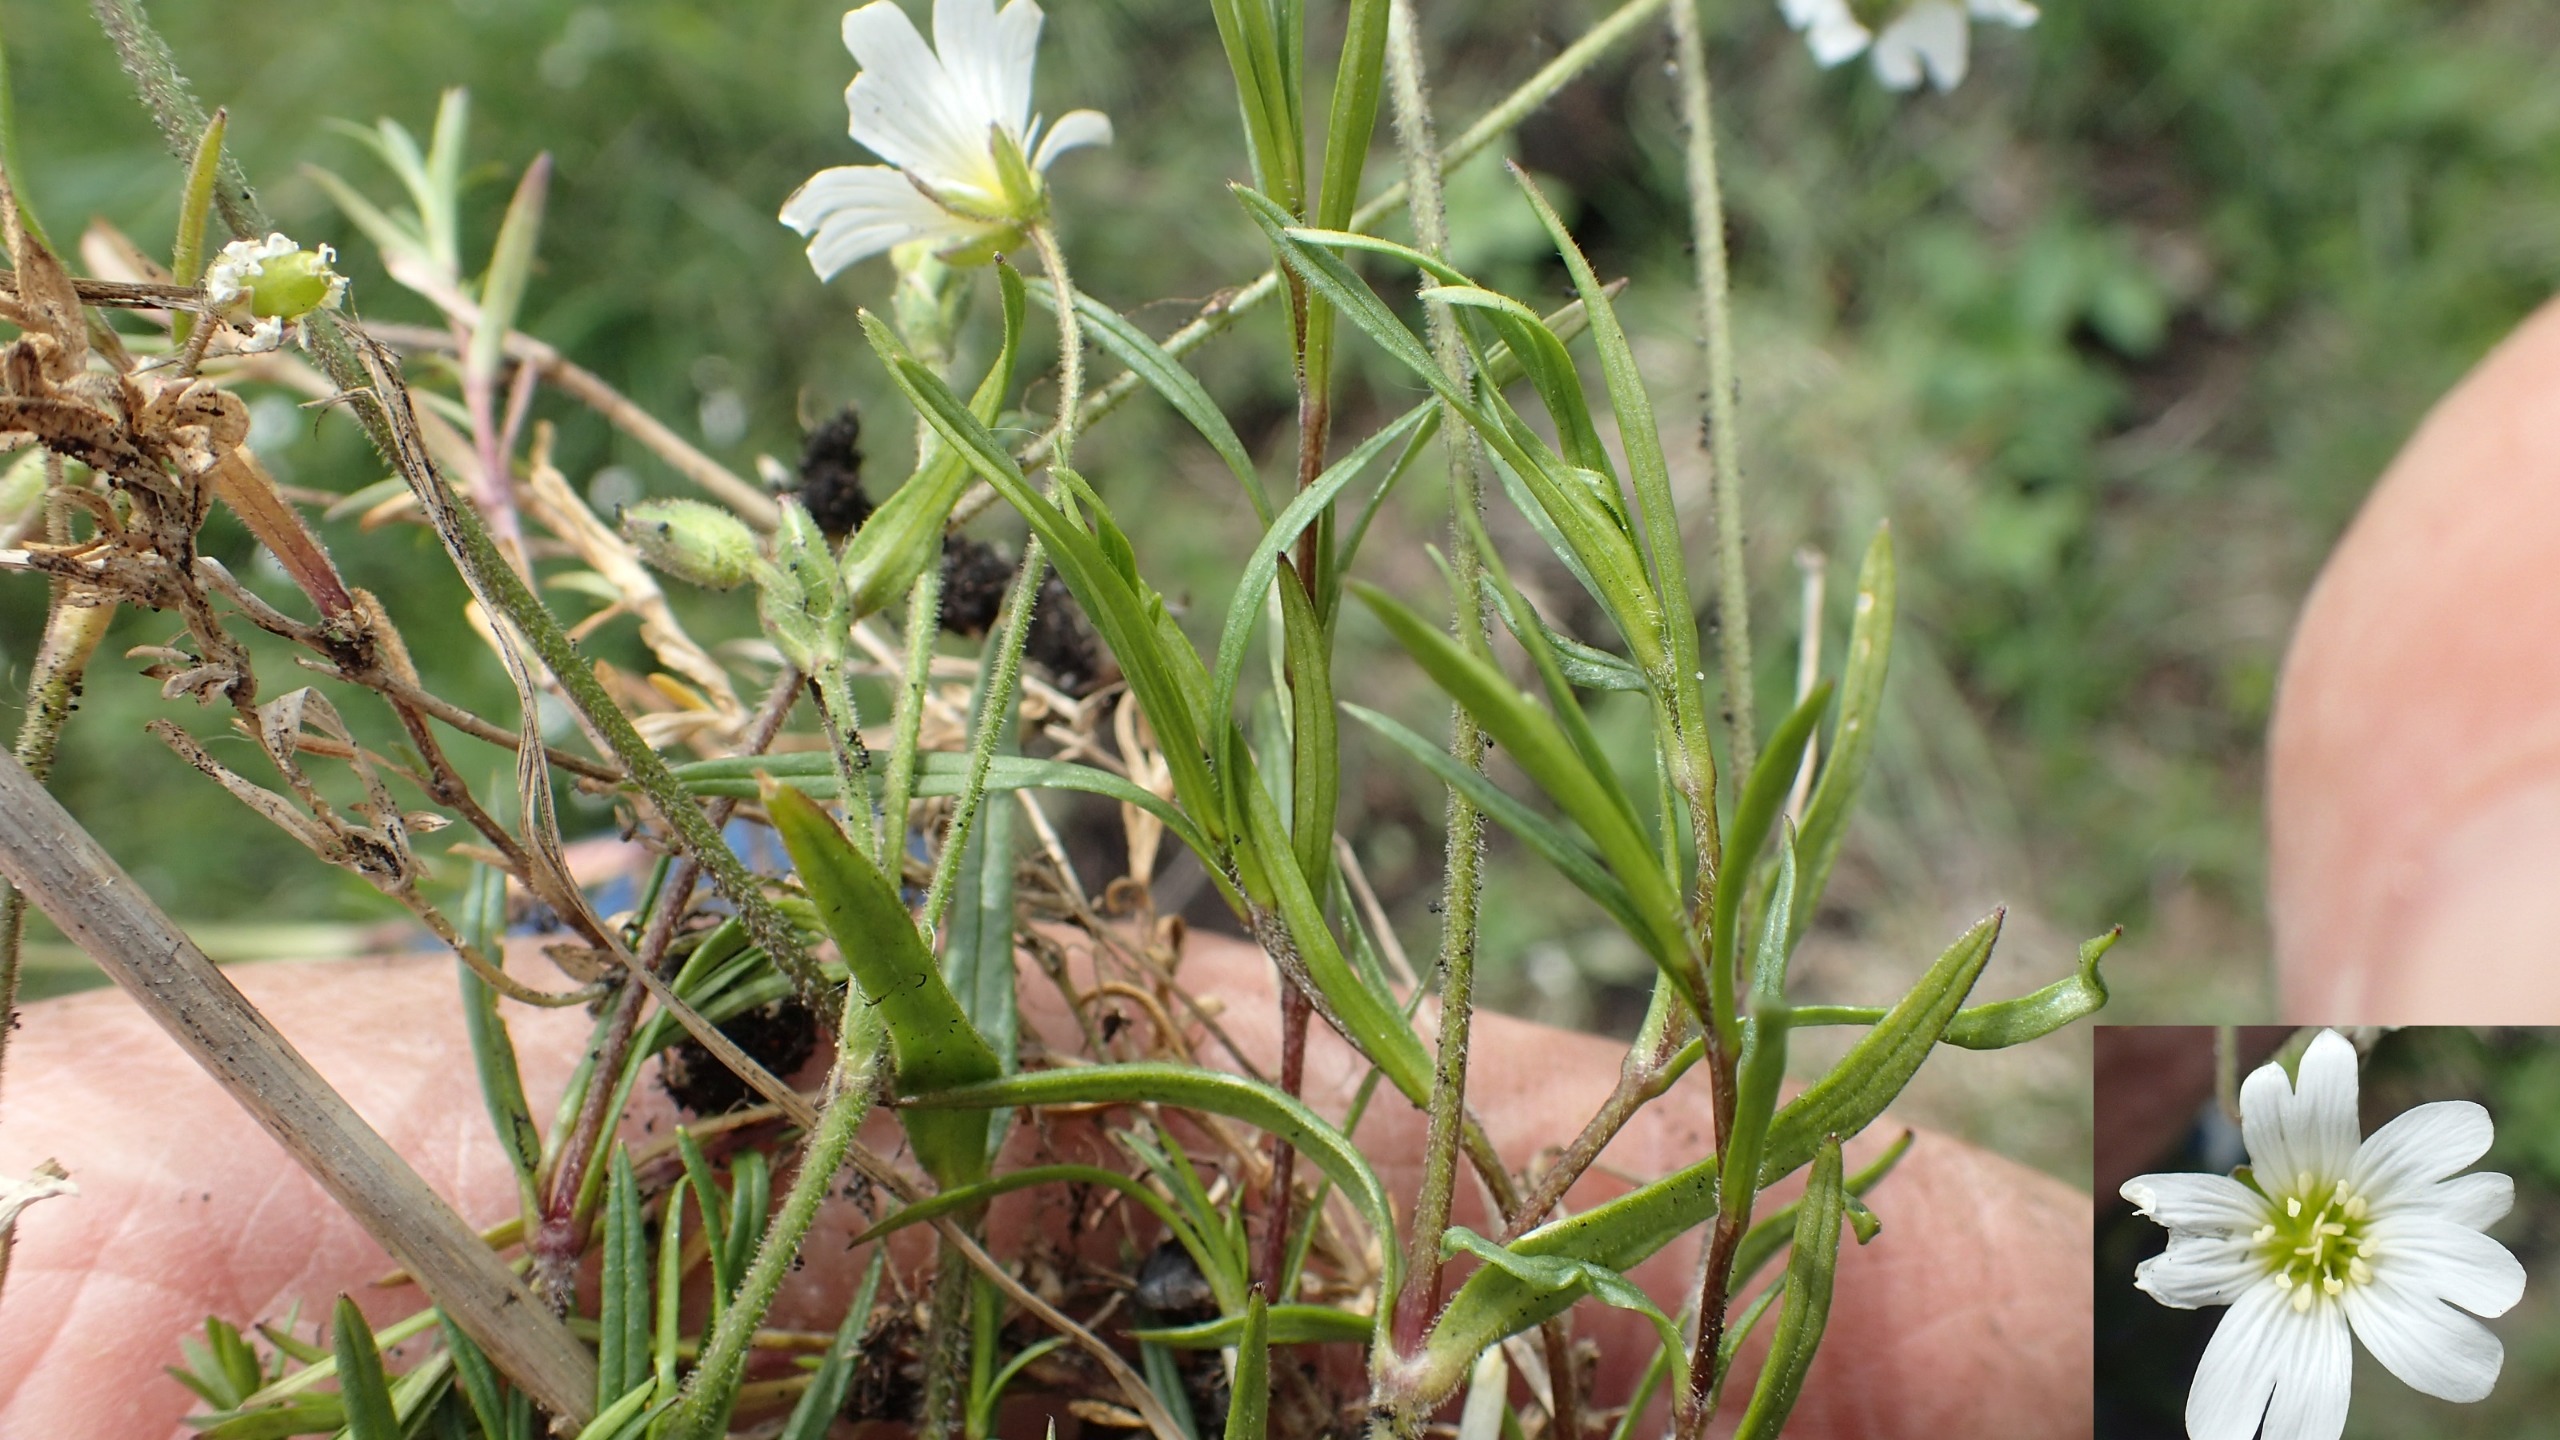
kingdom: Plantae
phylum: Tracheophyta
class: Magnoliopsida
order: Caryophyllales
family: Caryophyllaceae
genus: Cerastium
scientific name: Cerastium arvense
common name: Storblomstret hønsetarm
